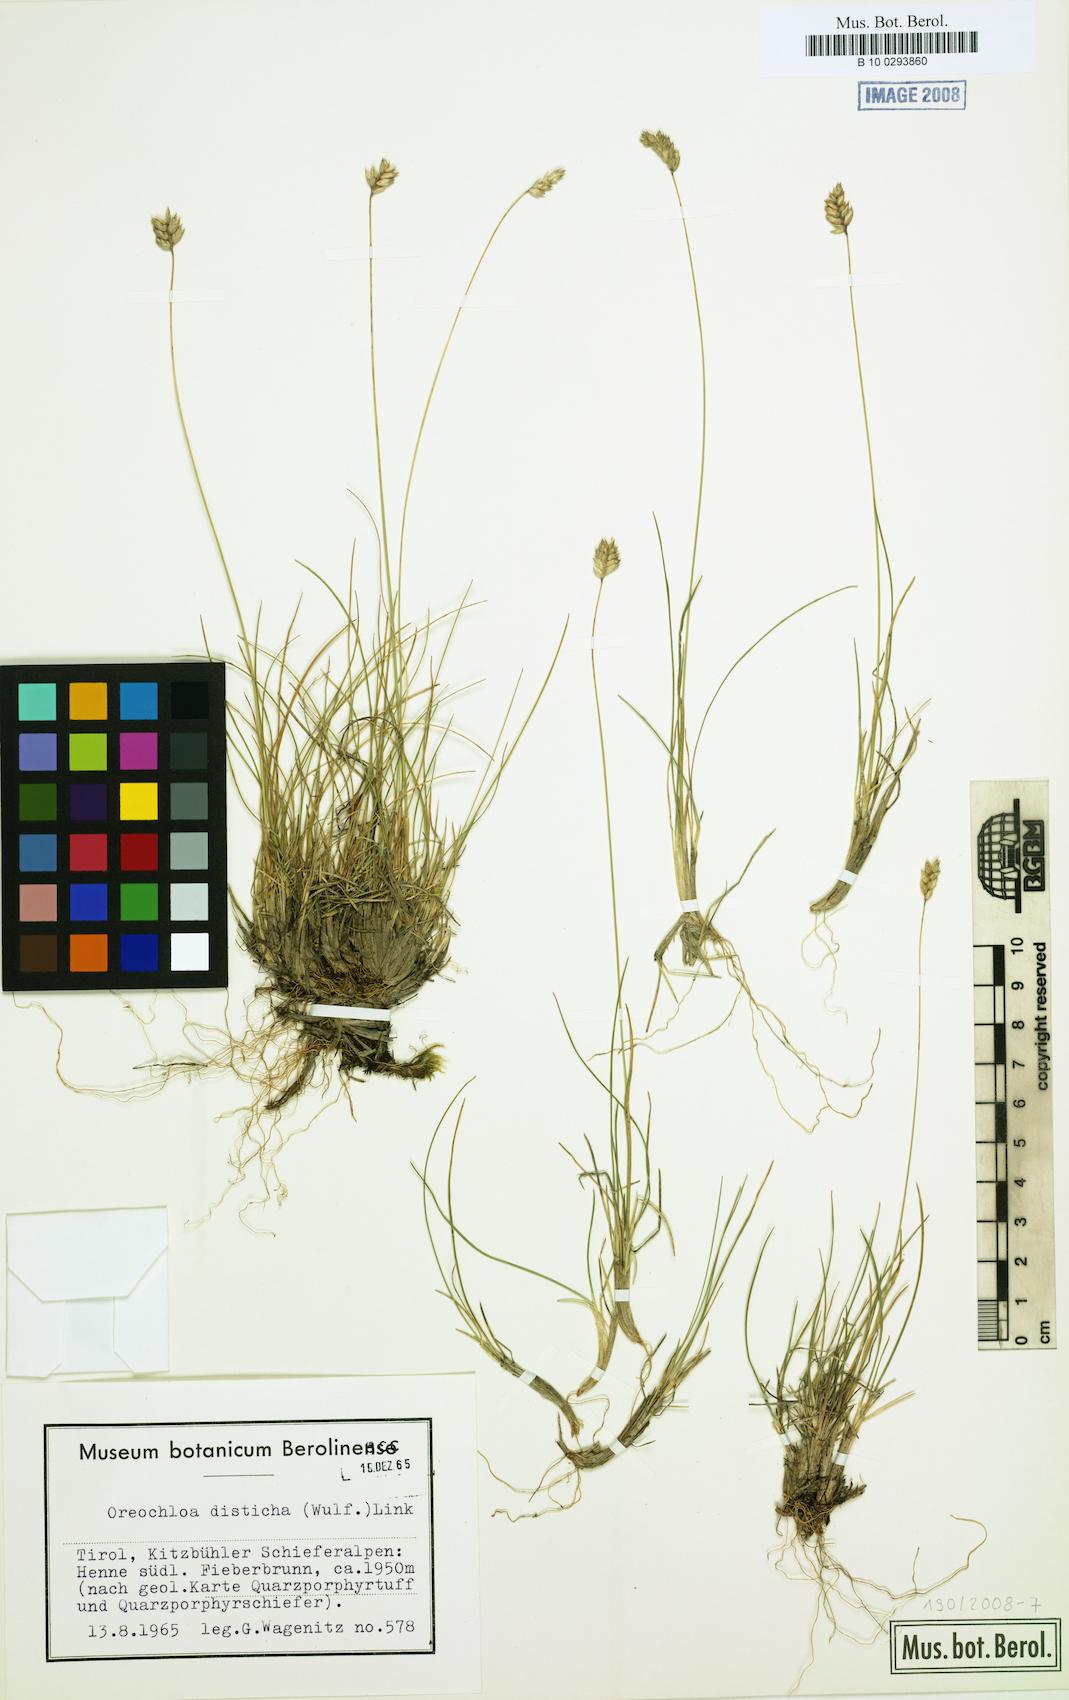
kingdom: Plantae
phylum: Tracheophyta
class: Liliopsida
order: Poales
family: Poaceae
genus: Oreochloa
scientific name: Oreochloa disticha
